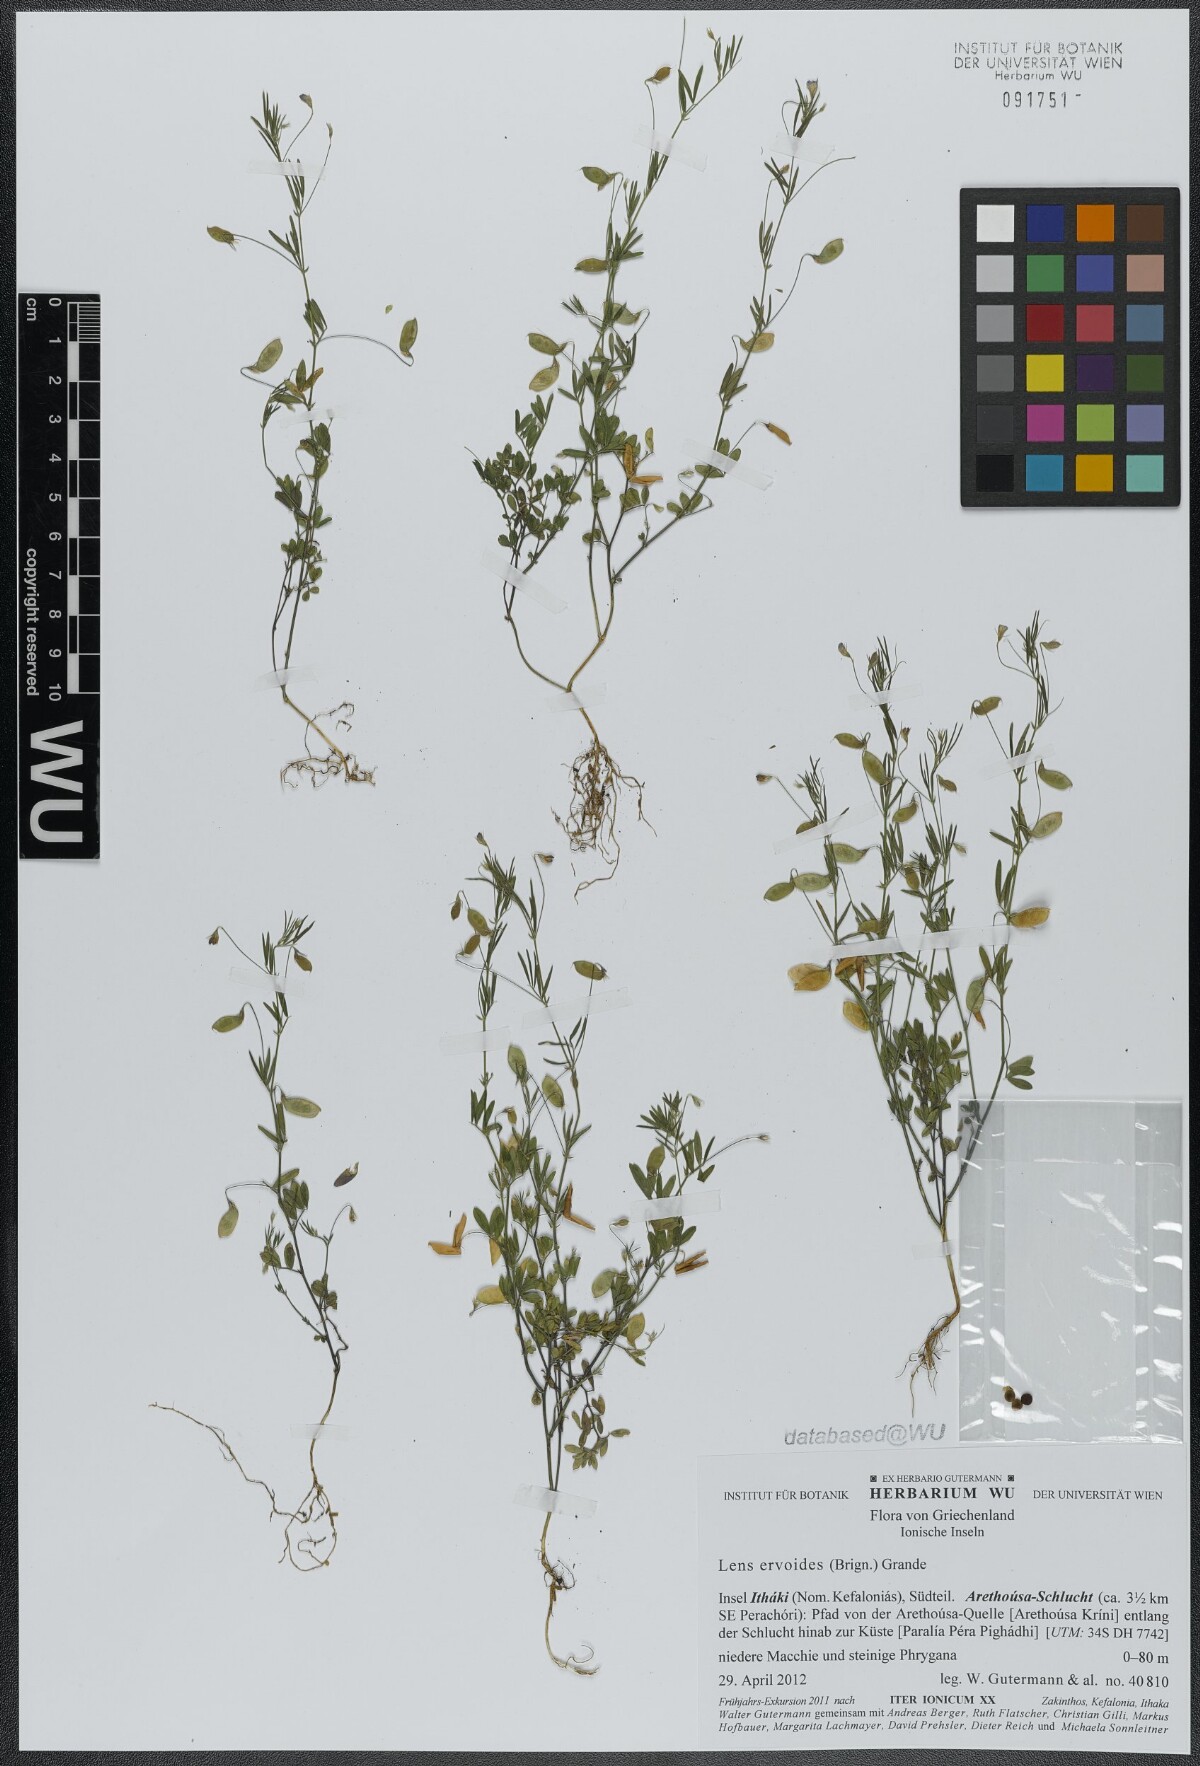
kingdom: Plantae
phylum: Tracheophyta
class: Magnoliopsida
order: Fabales
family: Fabaceae
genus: Vicia
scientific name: Vicia lenticula
